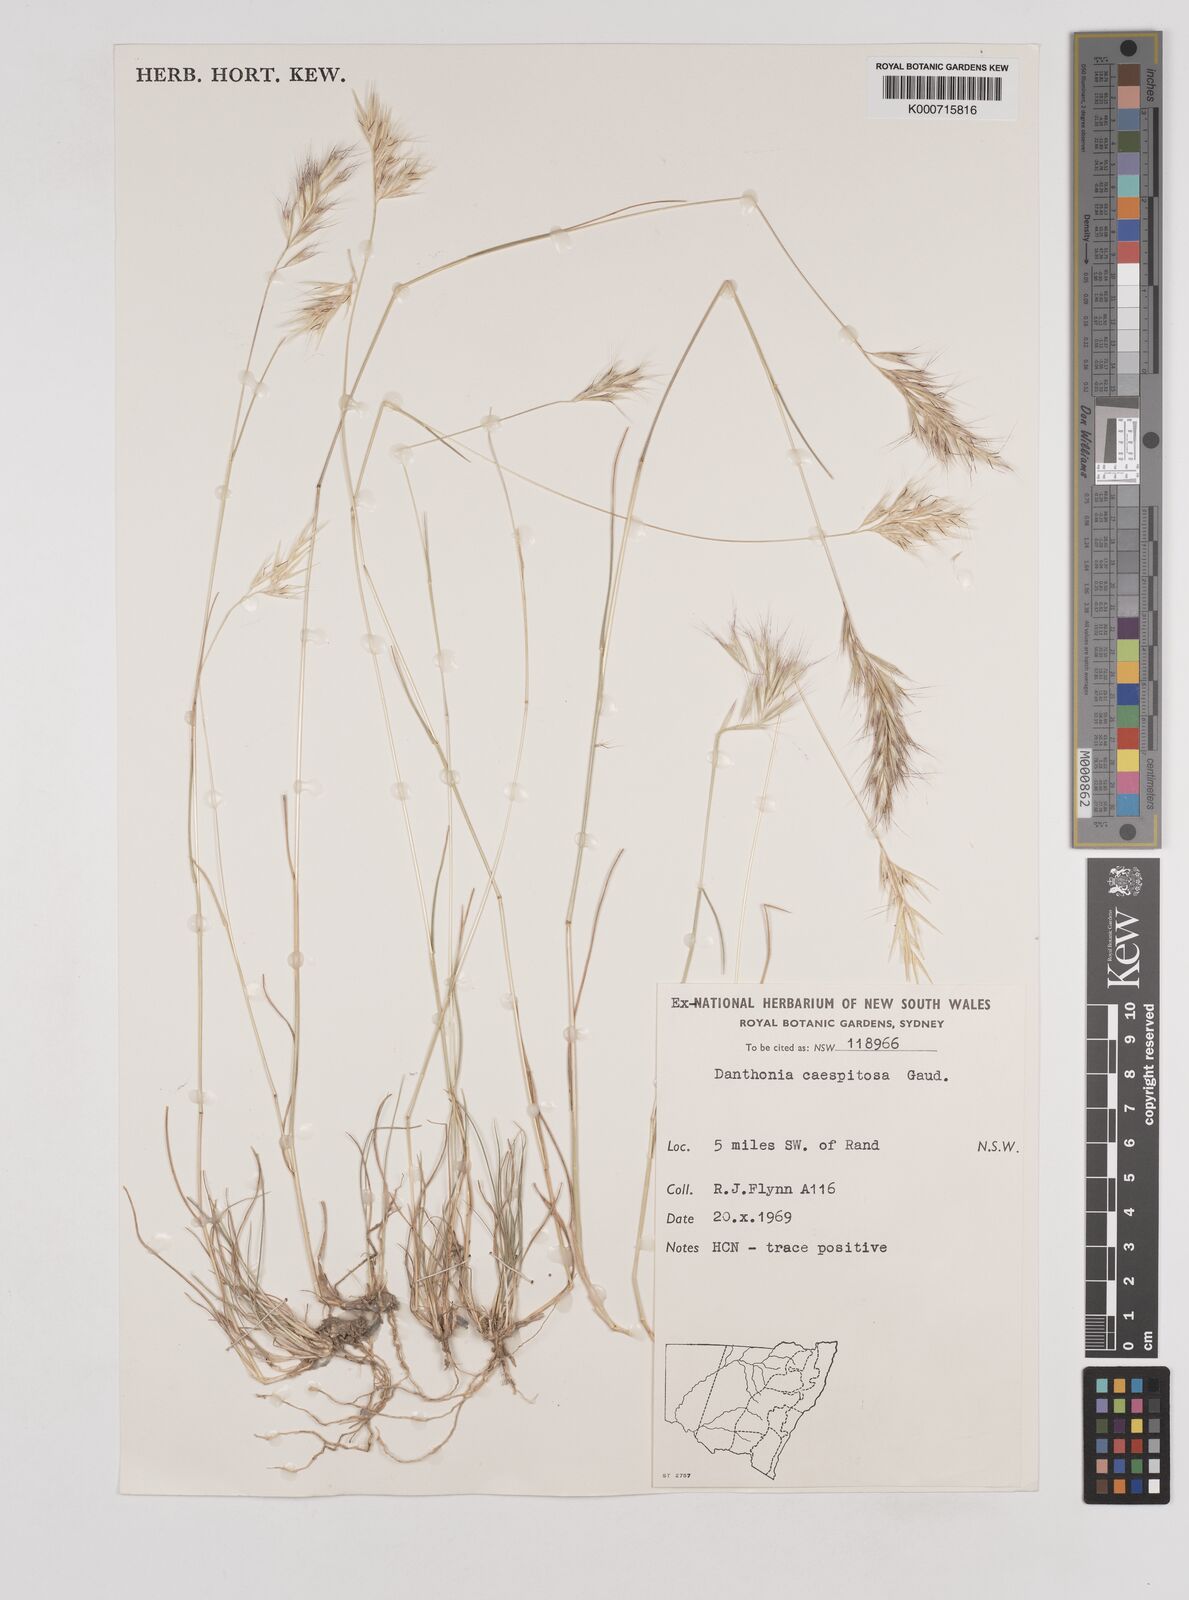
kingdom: Plantae
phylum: Tracheophyta
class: Liliopsida
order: Poales
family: Poaceae
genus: Rytidosperma
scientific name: Rytidosperma caespitosum
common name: Tufted wallaby grass
